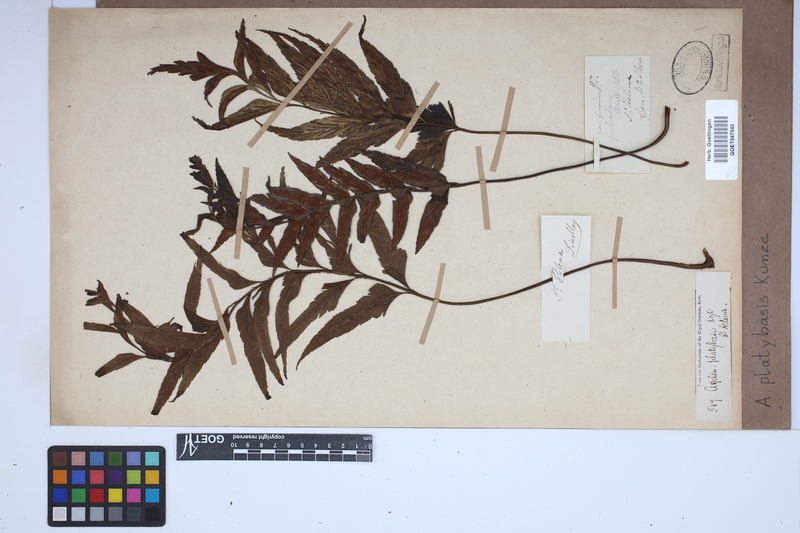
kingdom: Plantae
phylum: Tracheophyta
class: Polypodiopsida
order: Polypodiales
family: Aspleniaceae
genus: Asplenium
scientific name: Asplenium platybasis
